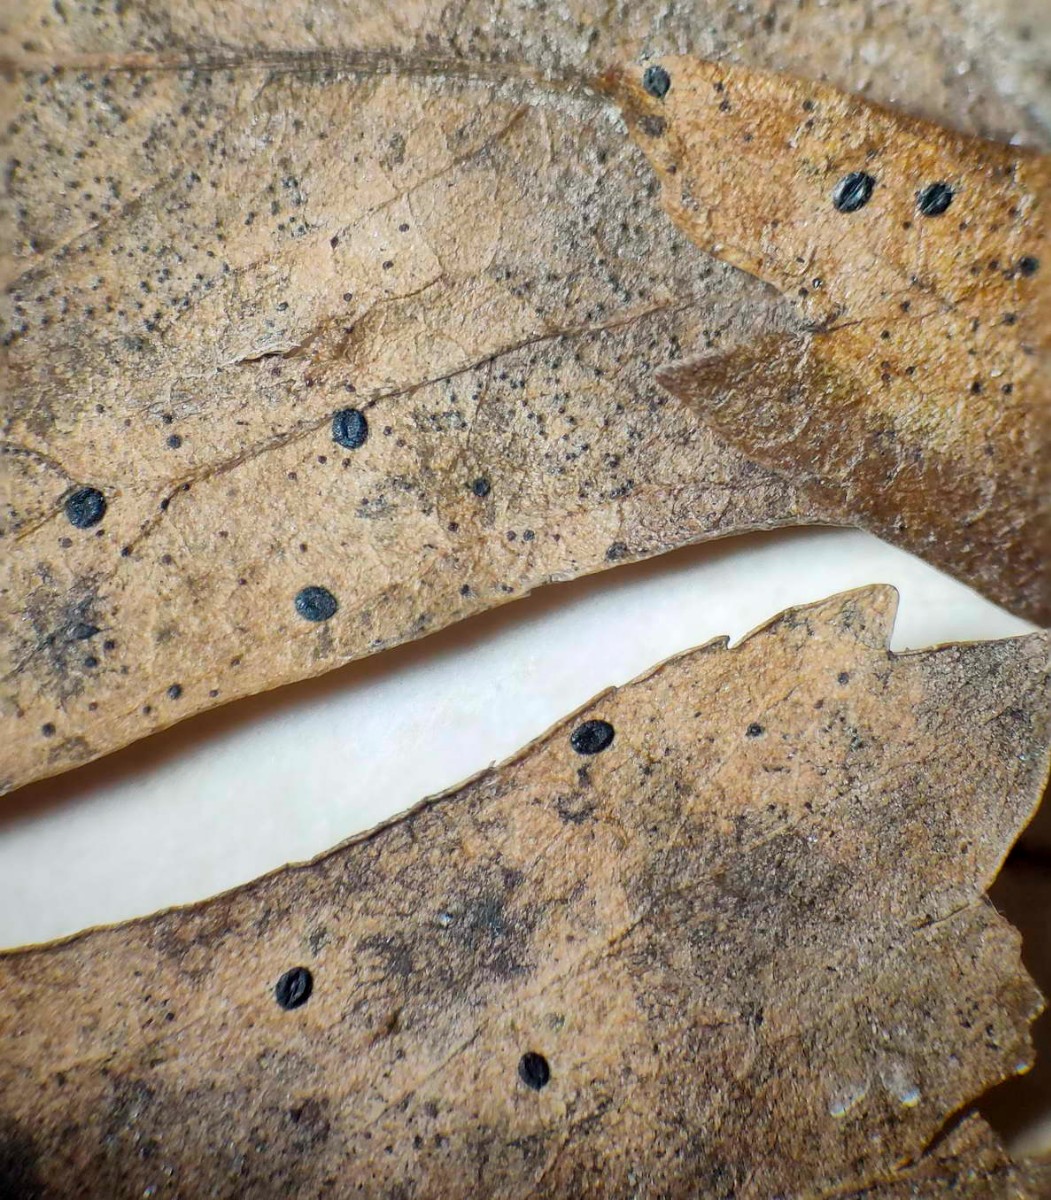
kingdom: Fungi
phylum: Ascomycota
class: Leotiomycetes
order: Rhytismatales
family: Rhytismataceae
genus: Lophodermium
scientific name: Lophodermium foliicola
